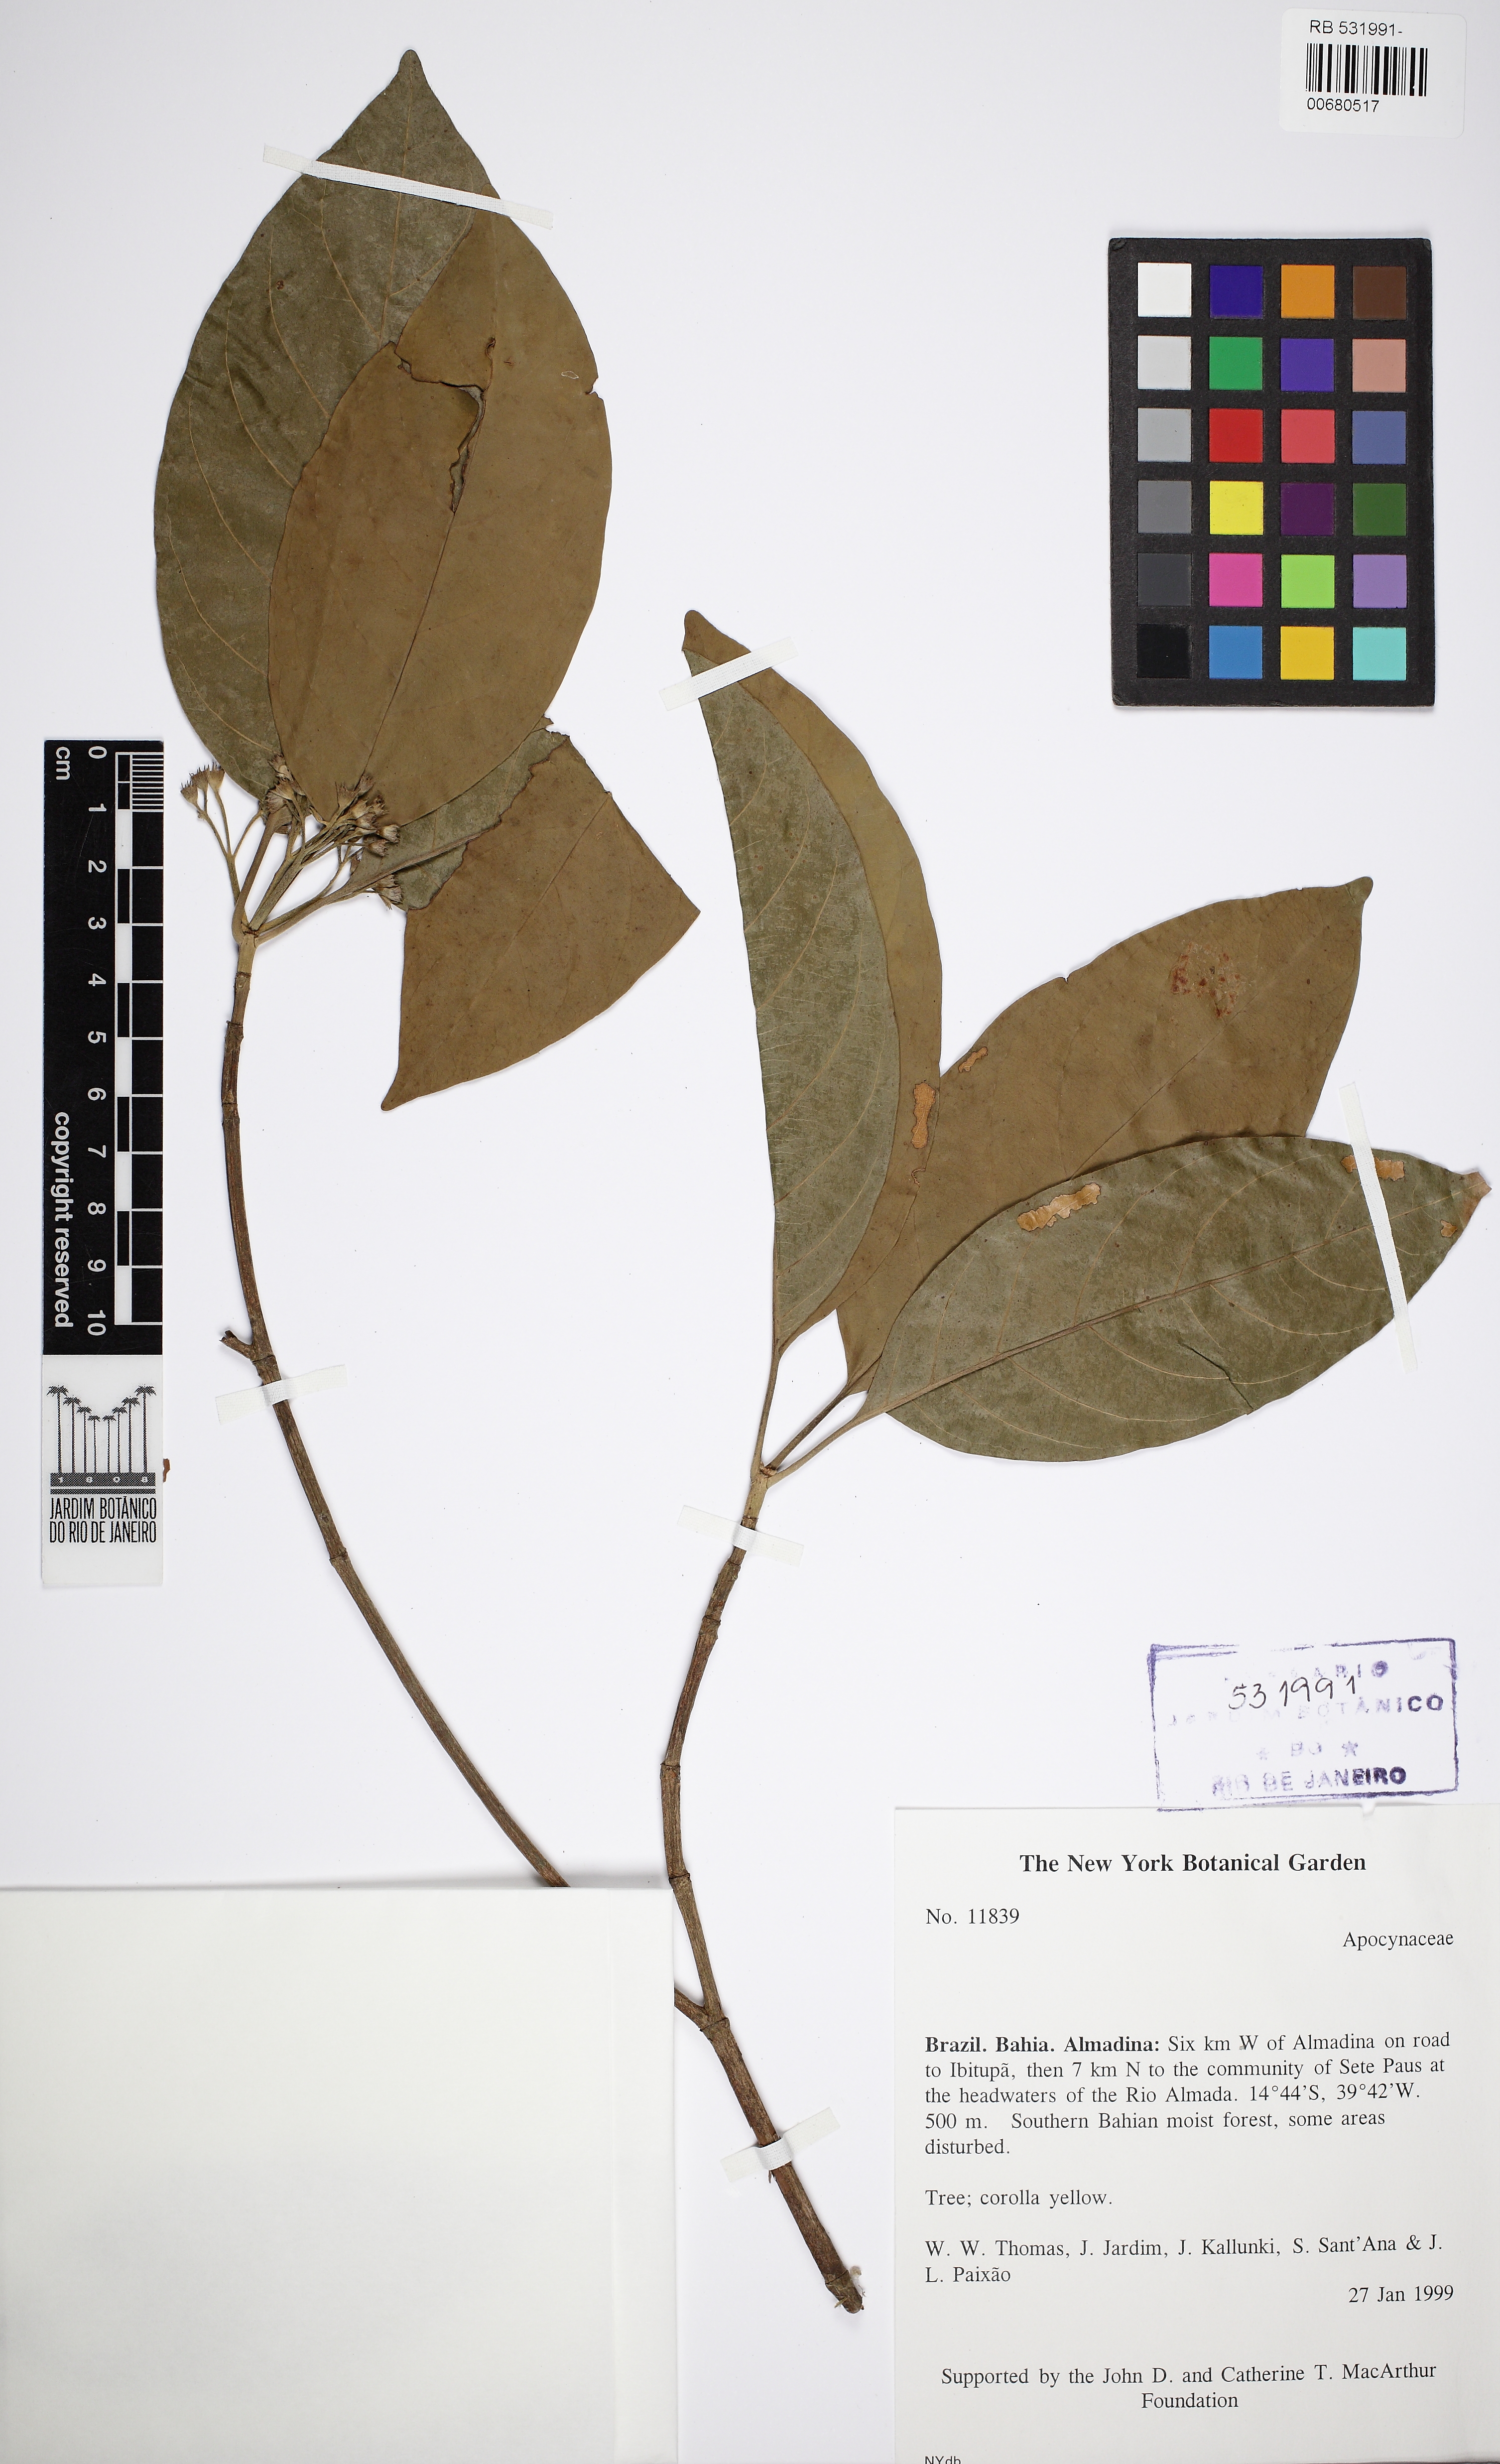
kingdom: Plantae
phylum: Tracheophyta
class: Magnoliopsida
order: Gentianales
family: Apocynaceae
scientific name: Apocynaceae
